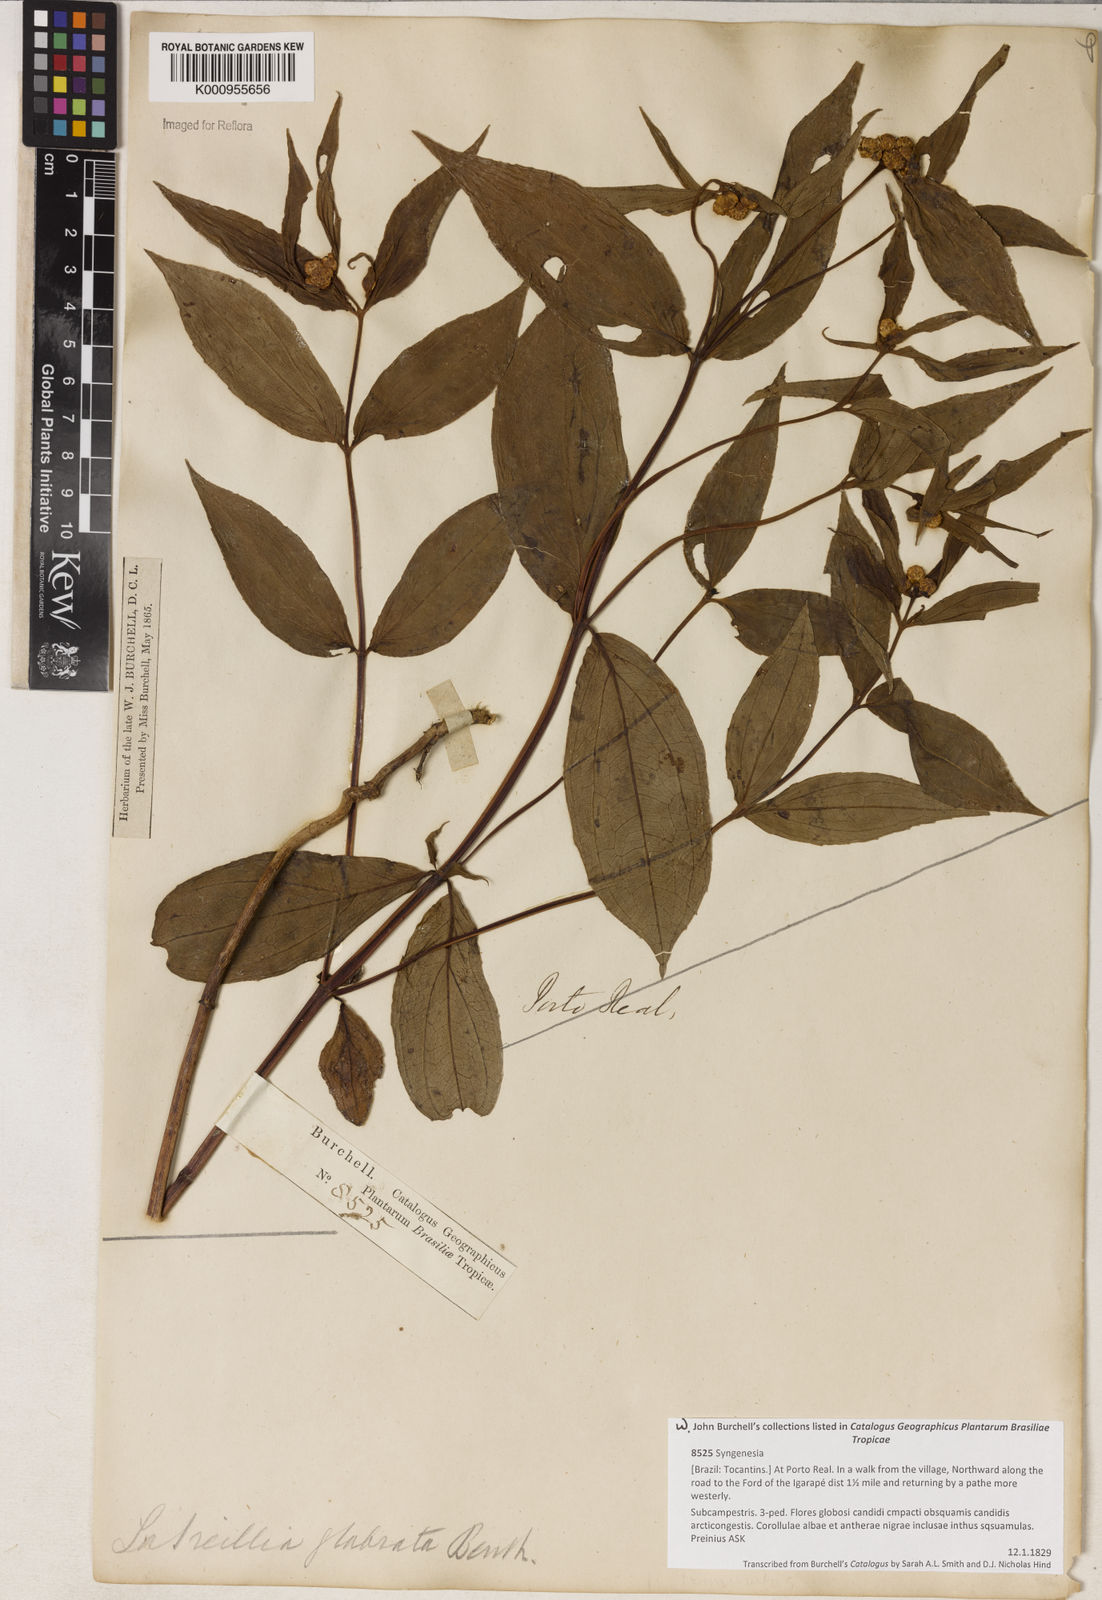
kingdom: Plantae
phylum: Tracheophyta
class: Magnoliopsida
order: Asterales
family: Asteraceae
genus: Ichthyothere
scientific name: Ichthyothere
